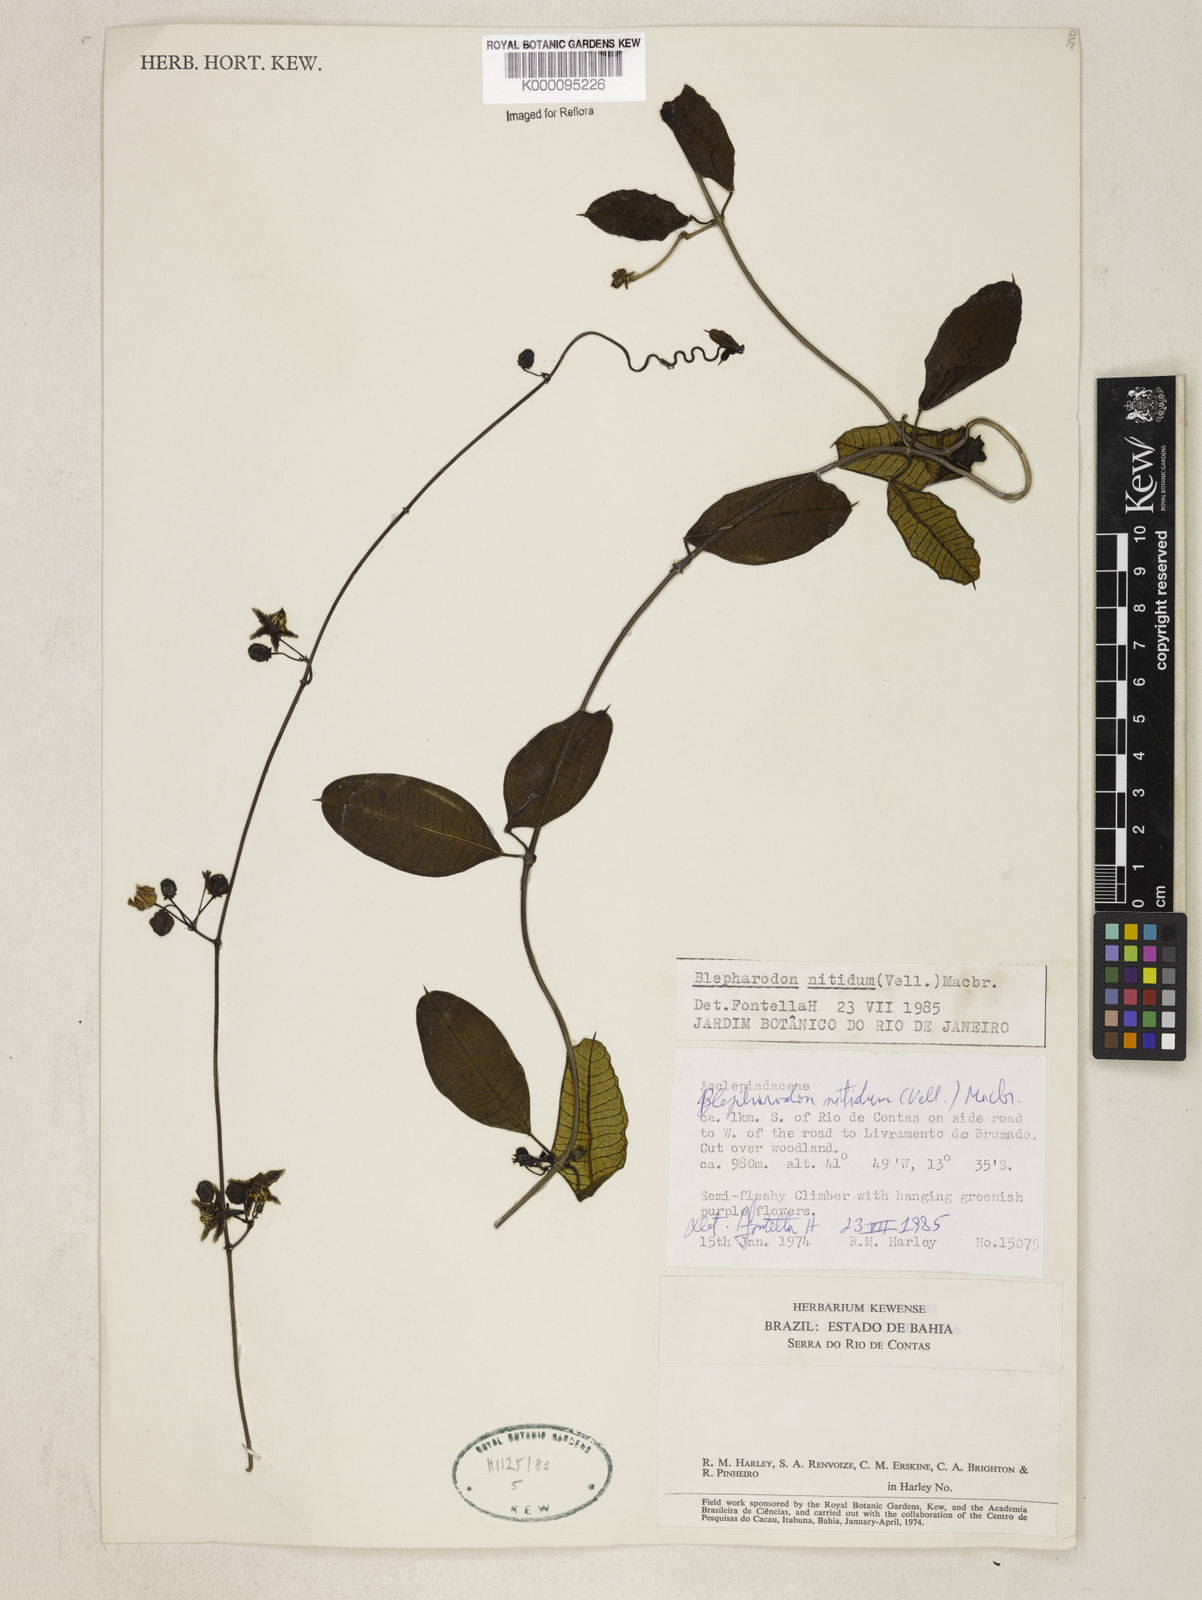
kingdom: Plantae
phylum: Tracheophyta
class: Magnoliopsida
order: Gentianales
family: Apocynaceae
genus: Blepharodon
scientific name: Blepharodon pictum
